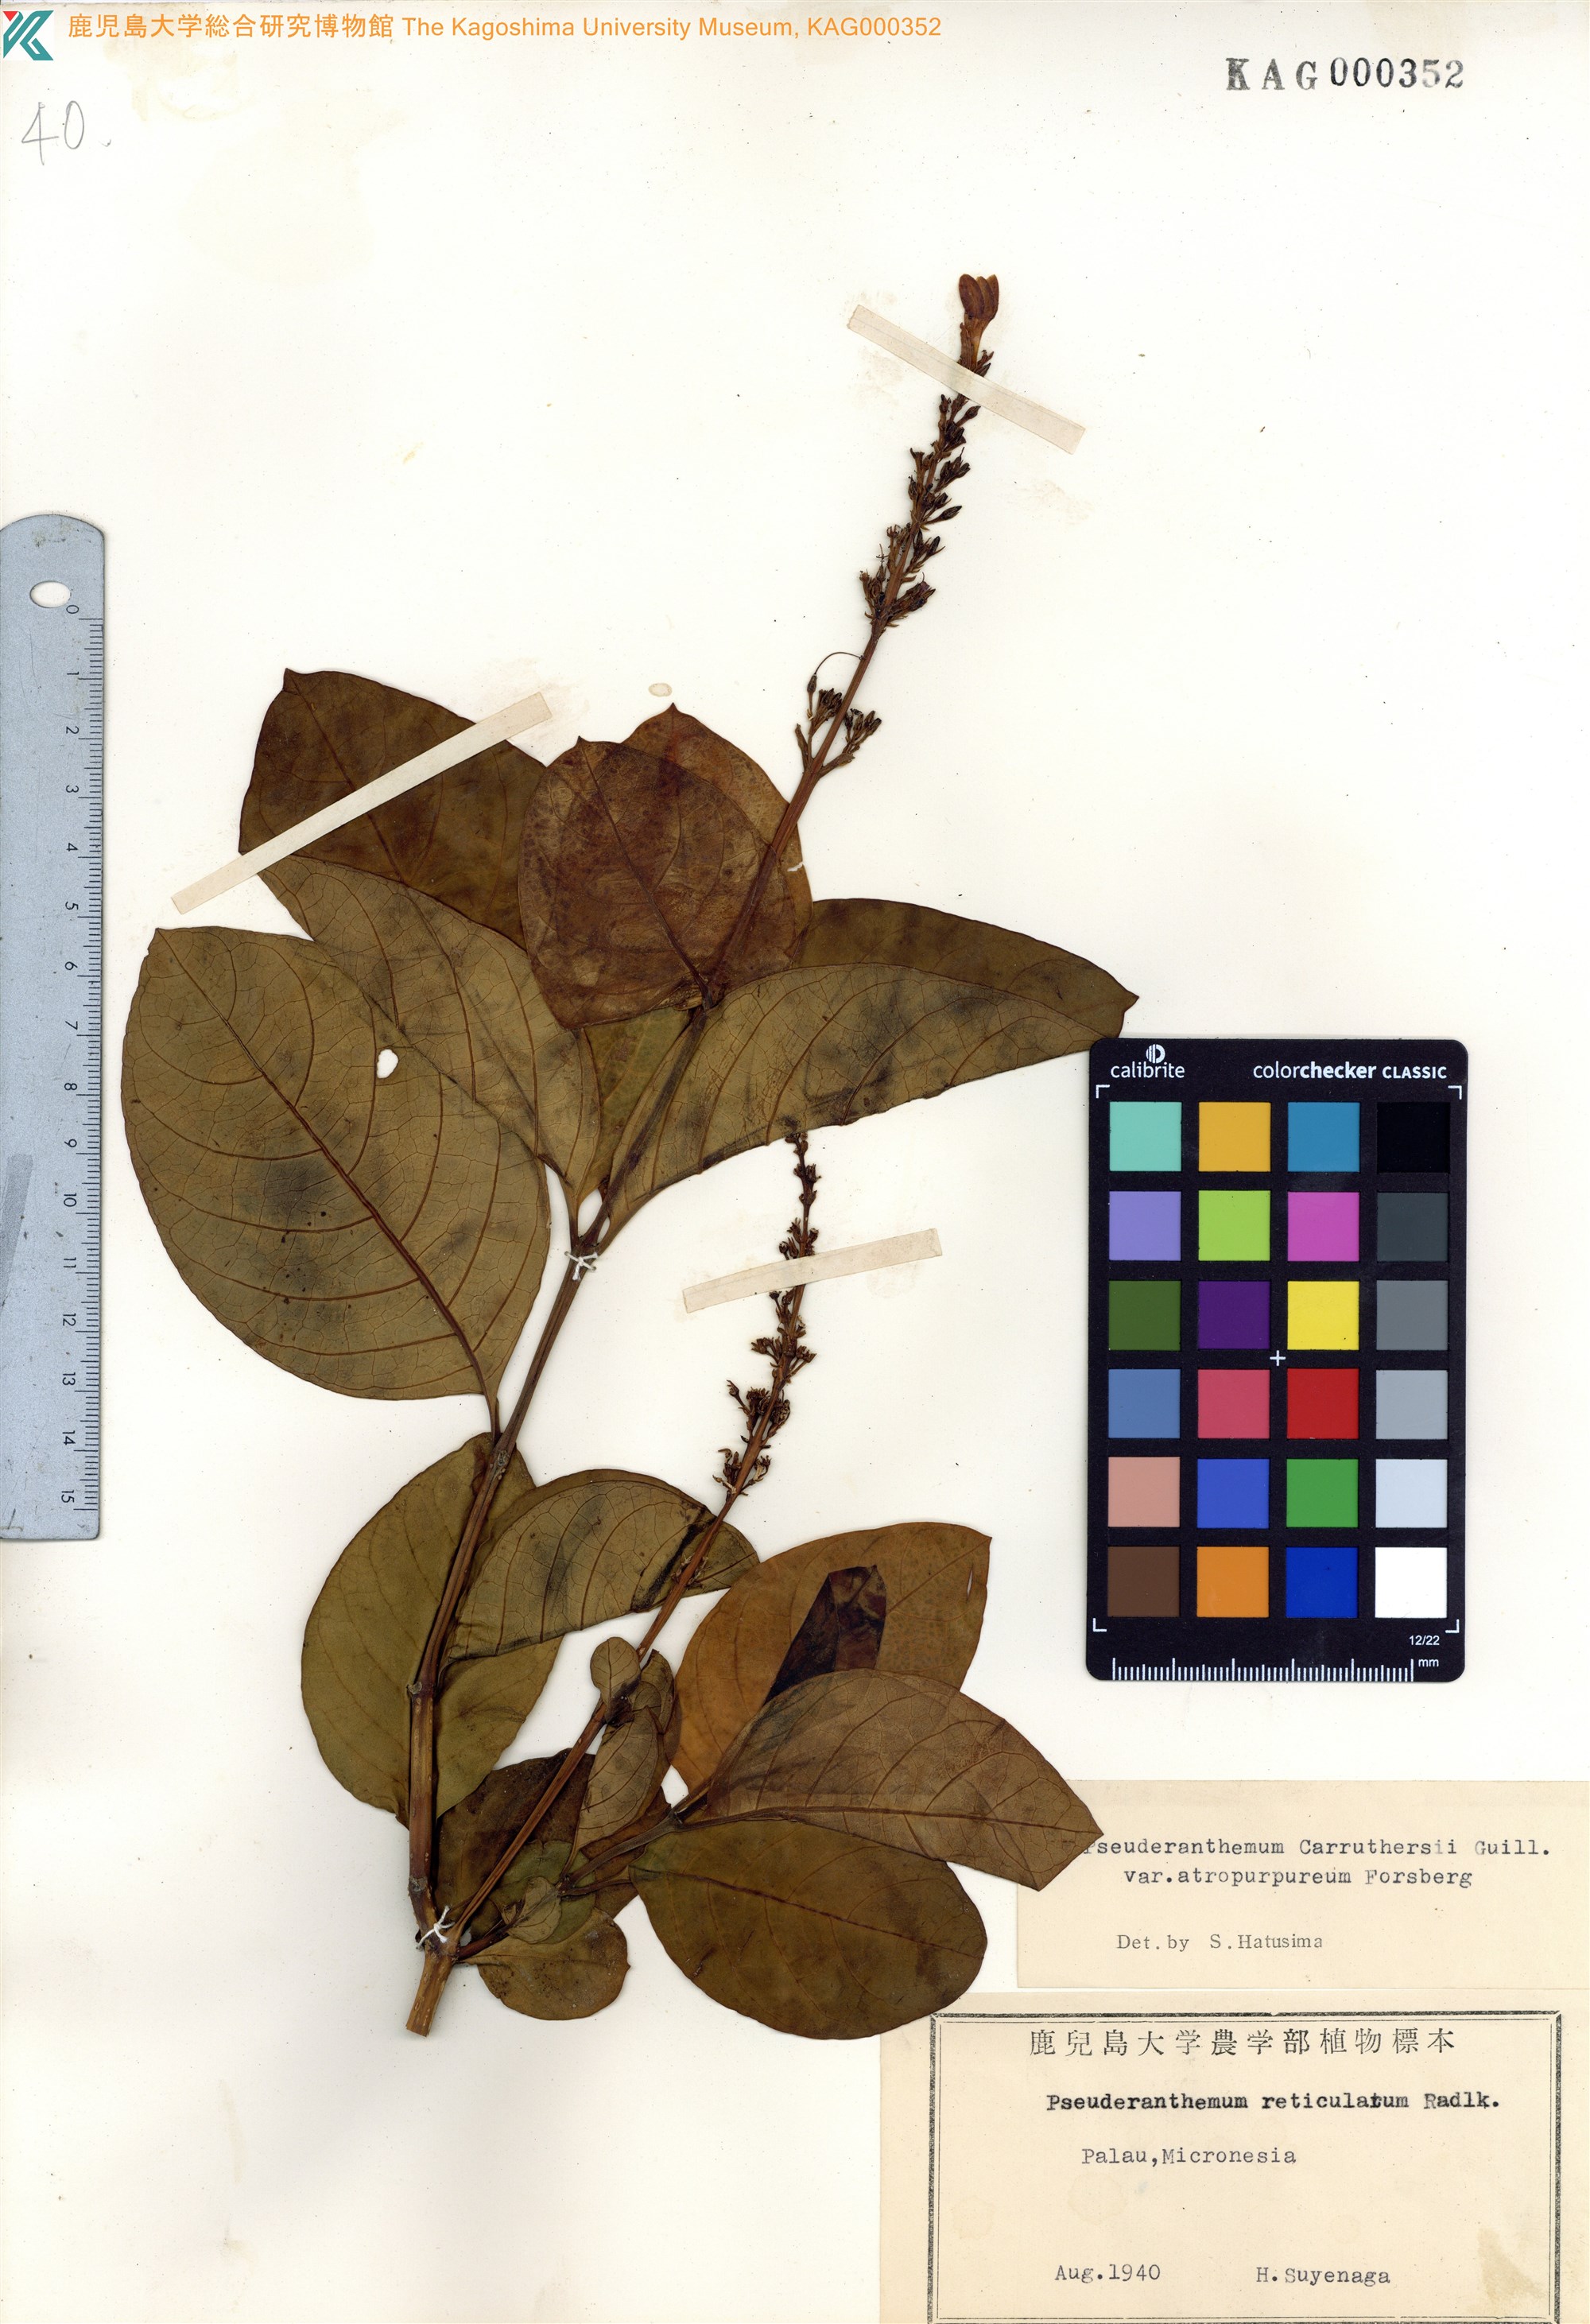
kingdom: Plantae
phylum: Tracheophyta
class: Magnoliopsida
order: Lamiales
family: Acanthaceae
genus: Pseuderanthemum
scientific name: Pseuderanthemum maculatum
